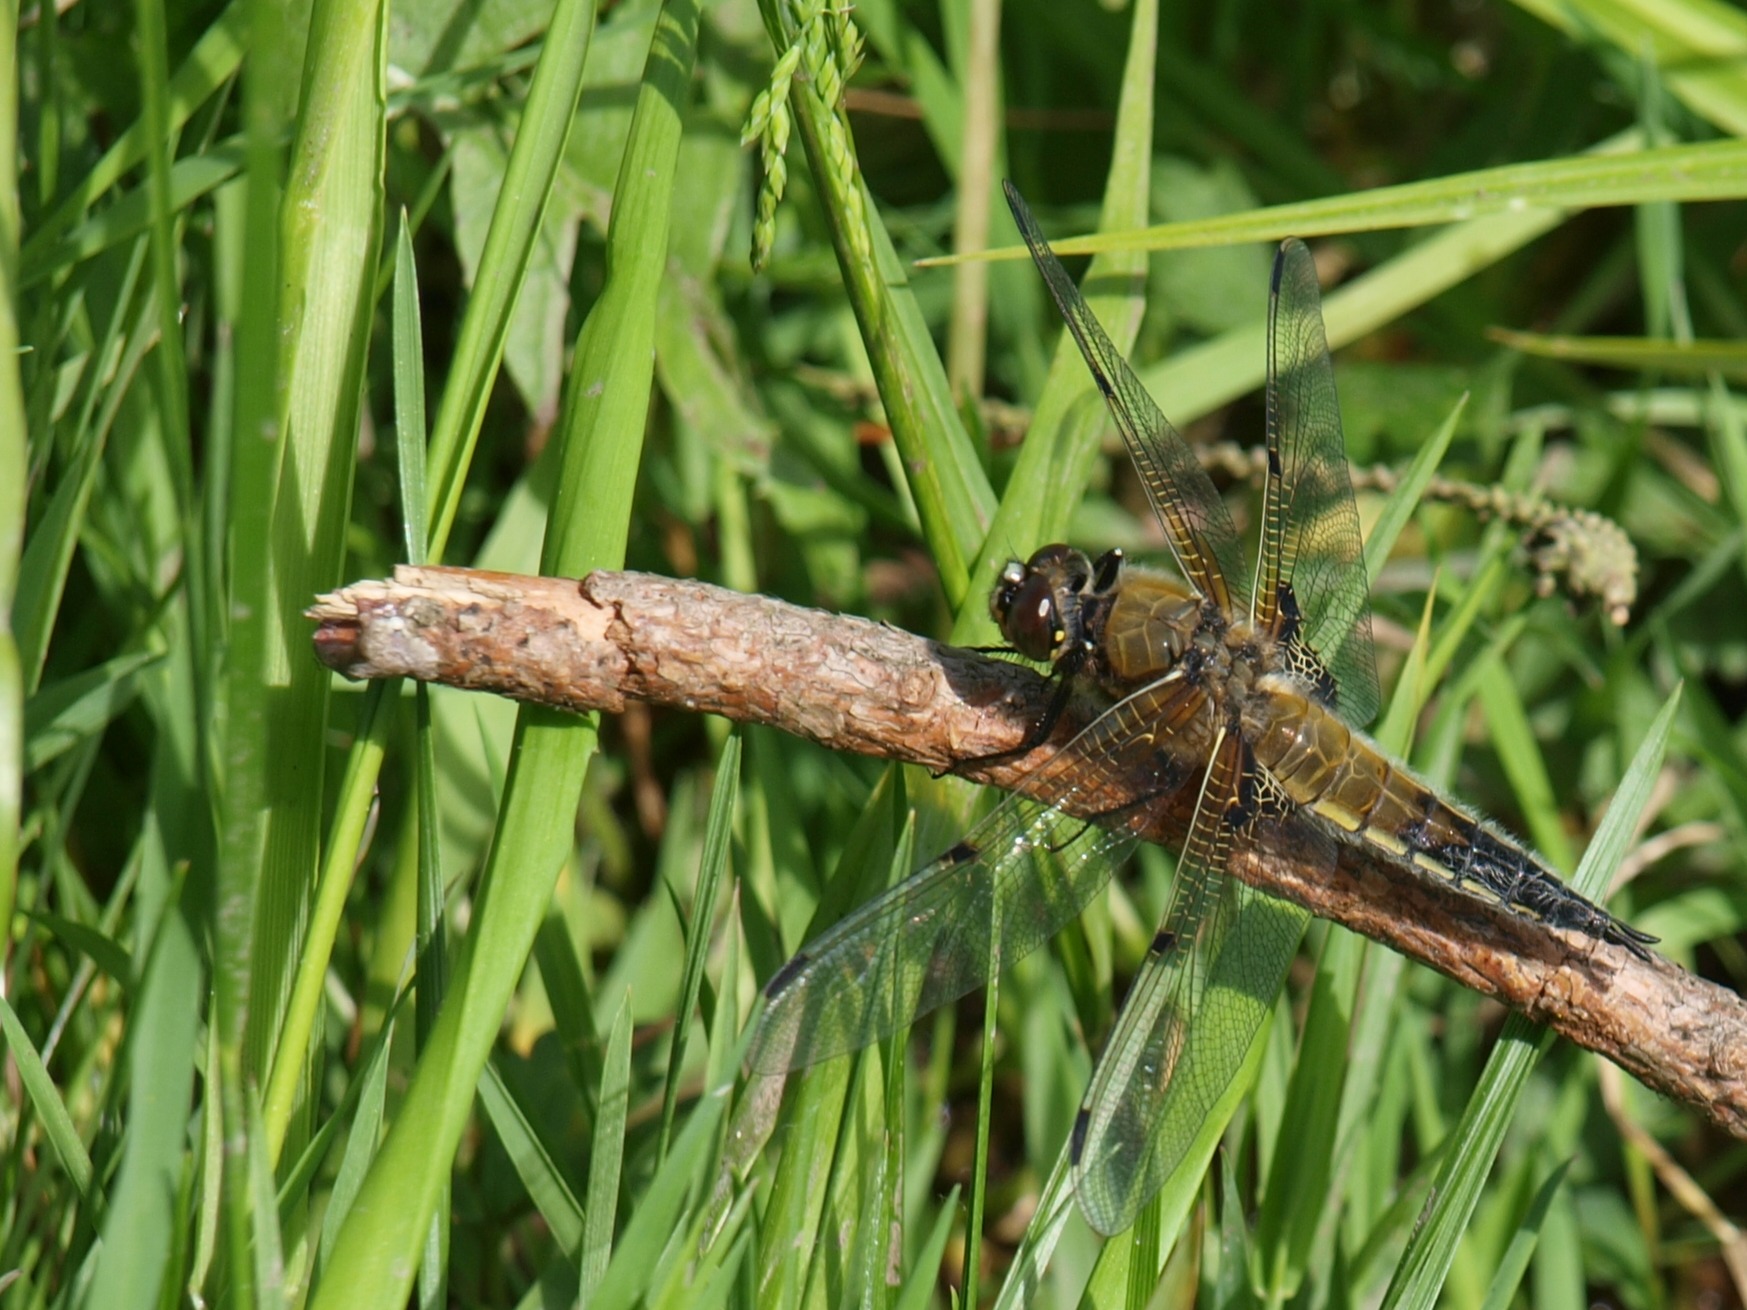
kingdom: Animalia
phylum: Arthropoda
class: Insecta
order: Odonata
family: Libellulidae
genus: Libellula
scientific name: Libellula quadrimaculata
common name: Fireplettet libel
